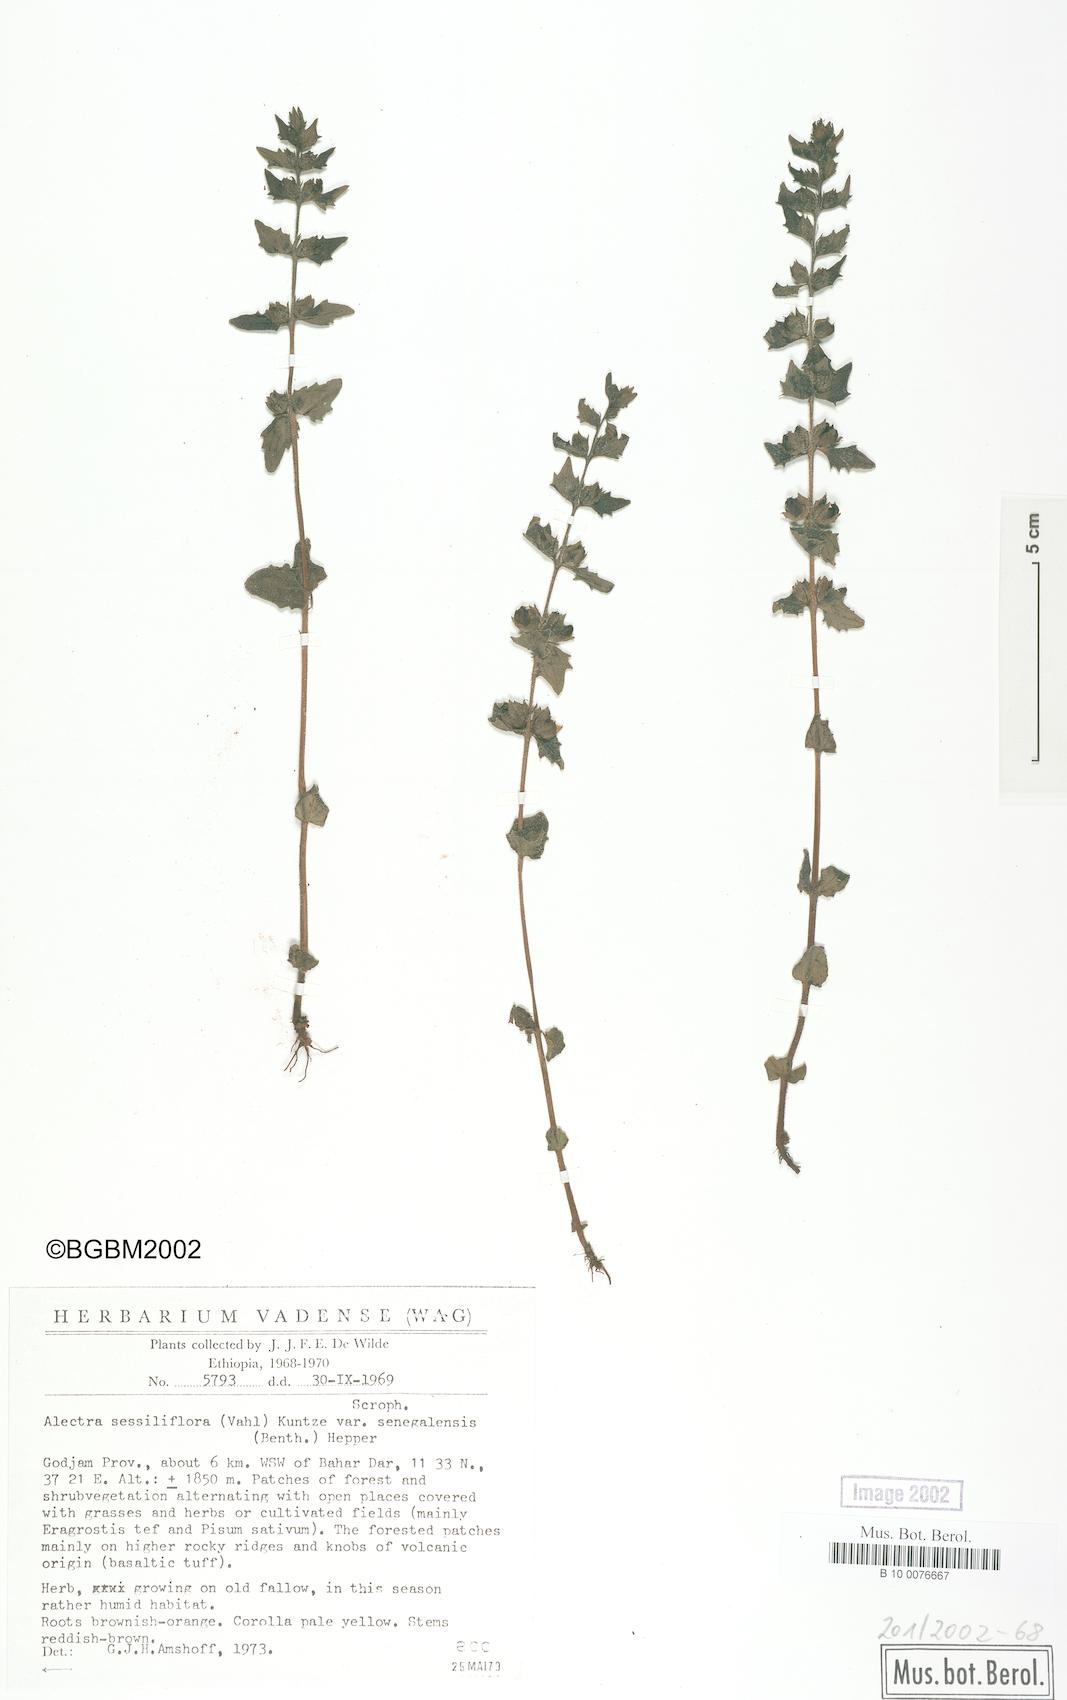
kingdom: Plantae
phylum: Tracheophyta
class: Magnoliopsida
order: Lamiales
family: Orobanchaceae
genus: Alectra
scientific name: Alectra sessiliflora
